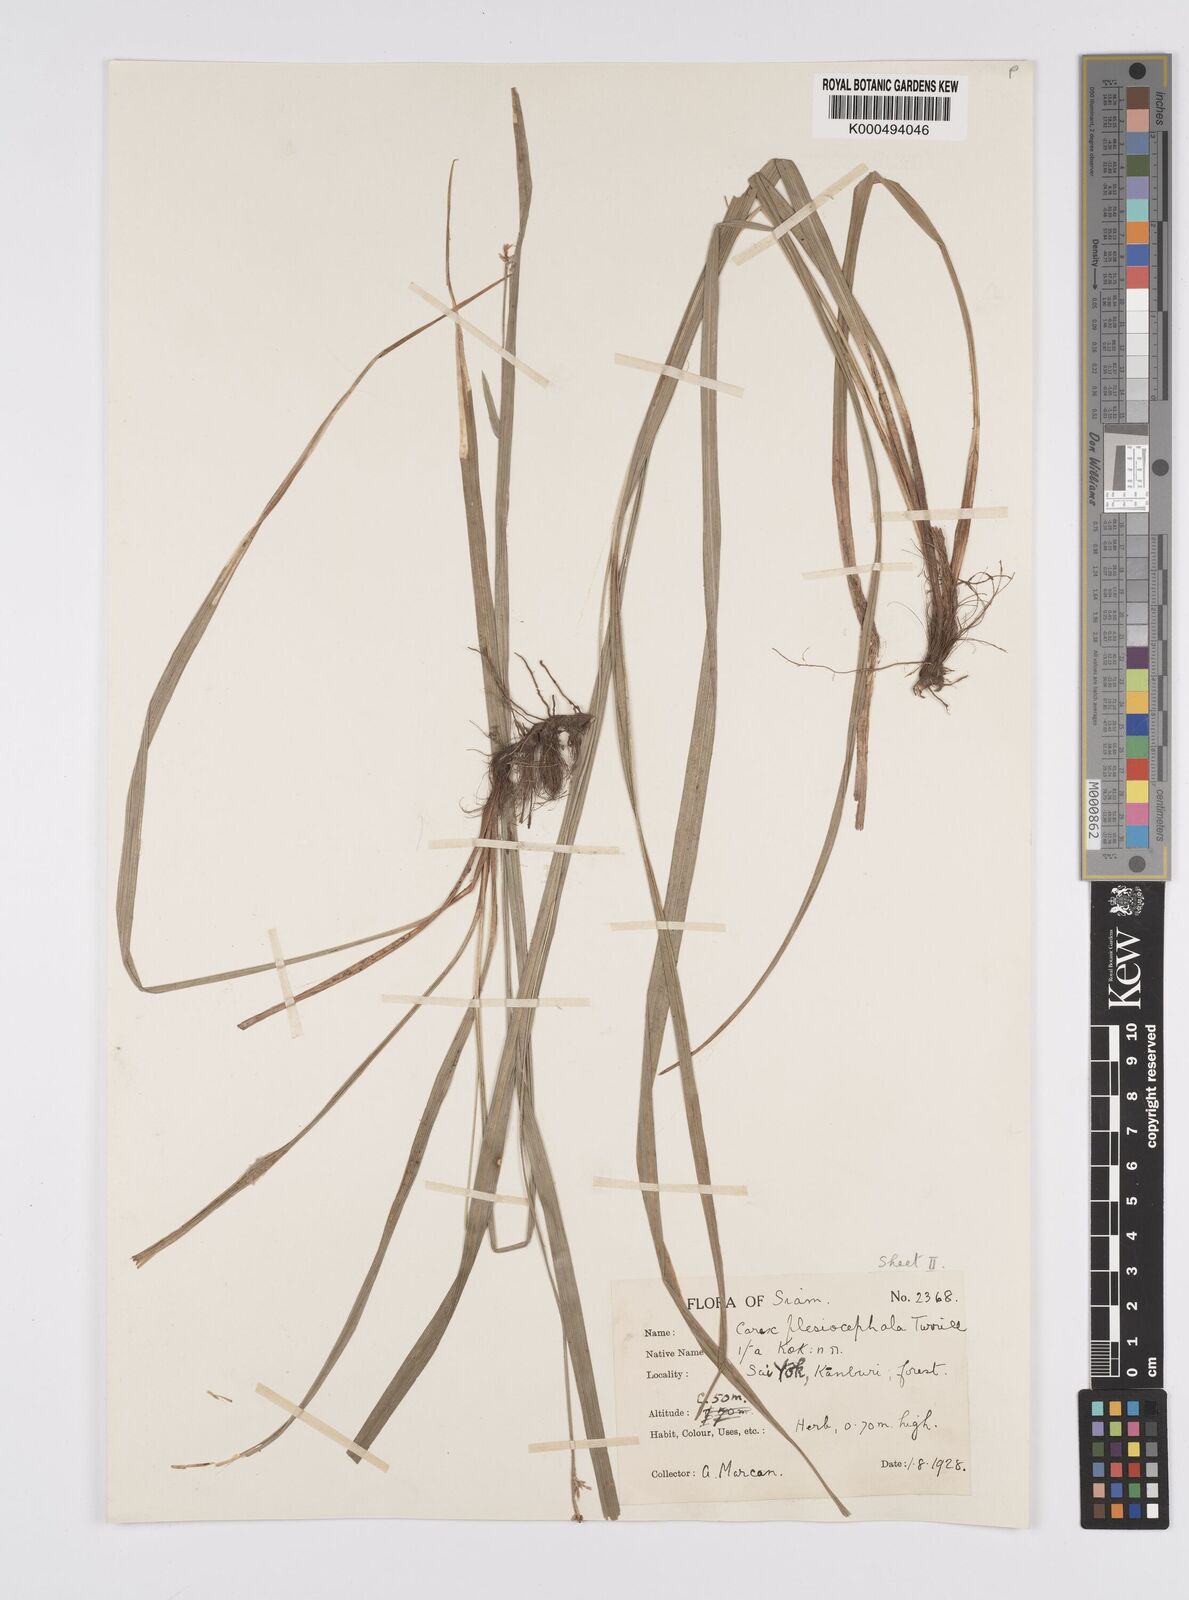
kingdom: Plantae
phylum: Tracheophyta
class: Liliopsida
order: Poales
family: Cyperaceae
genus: Carex
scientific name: Carex tricephala
